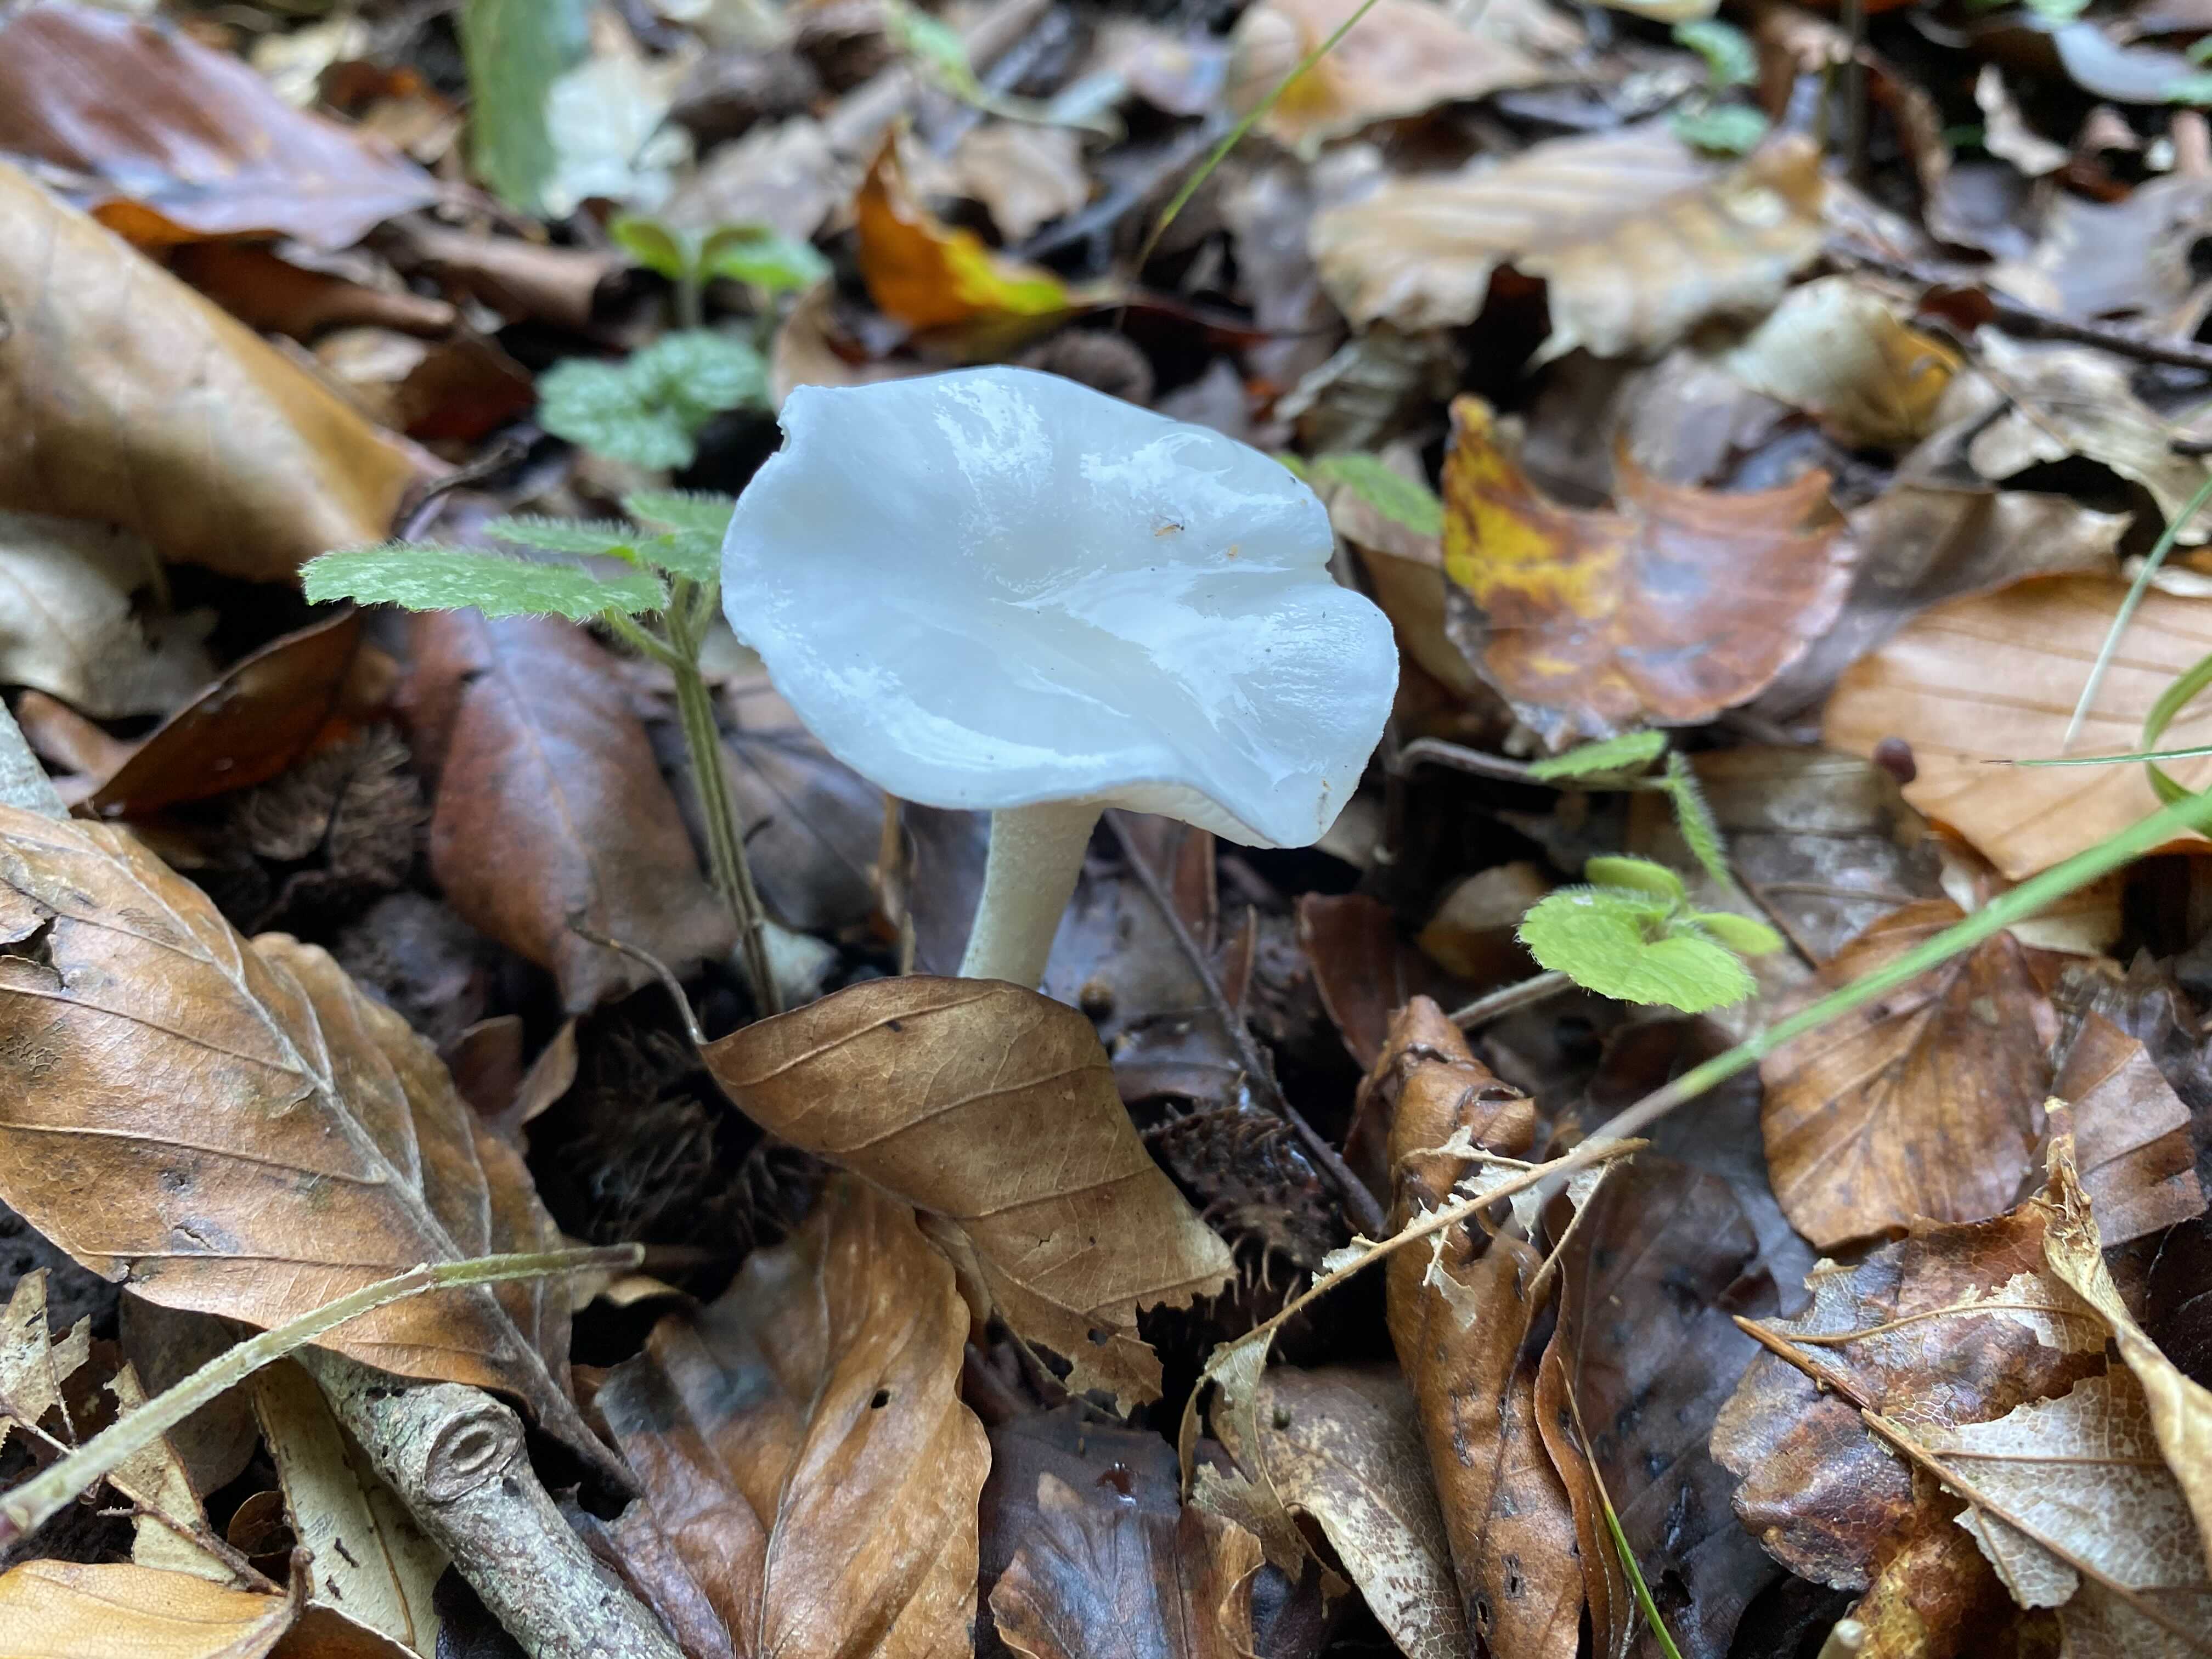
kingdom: Fungi
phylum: Basidiomycota
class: Agaricomycetes
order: Agaricales
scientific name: Agaricales
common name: champignonordenen
